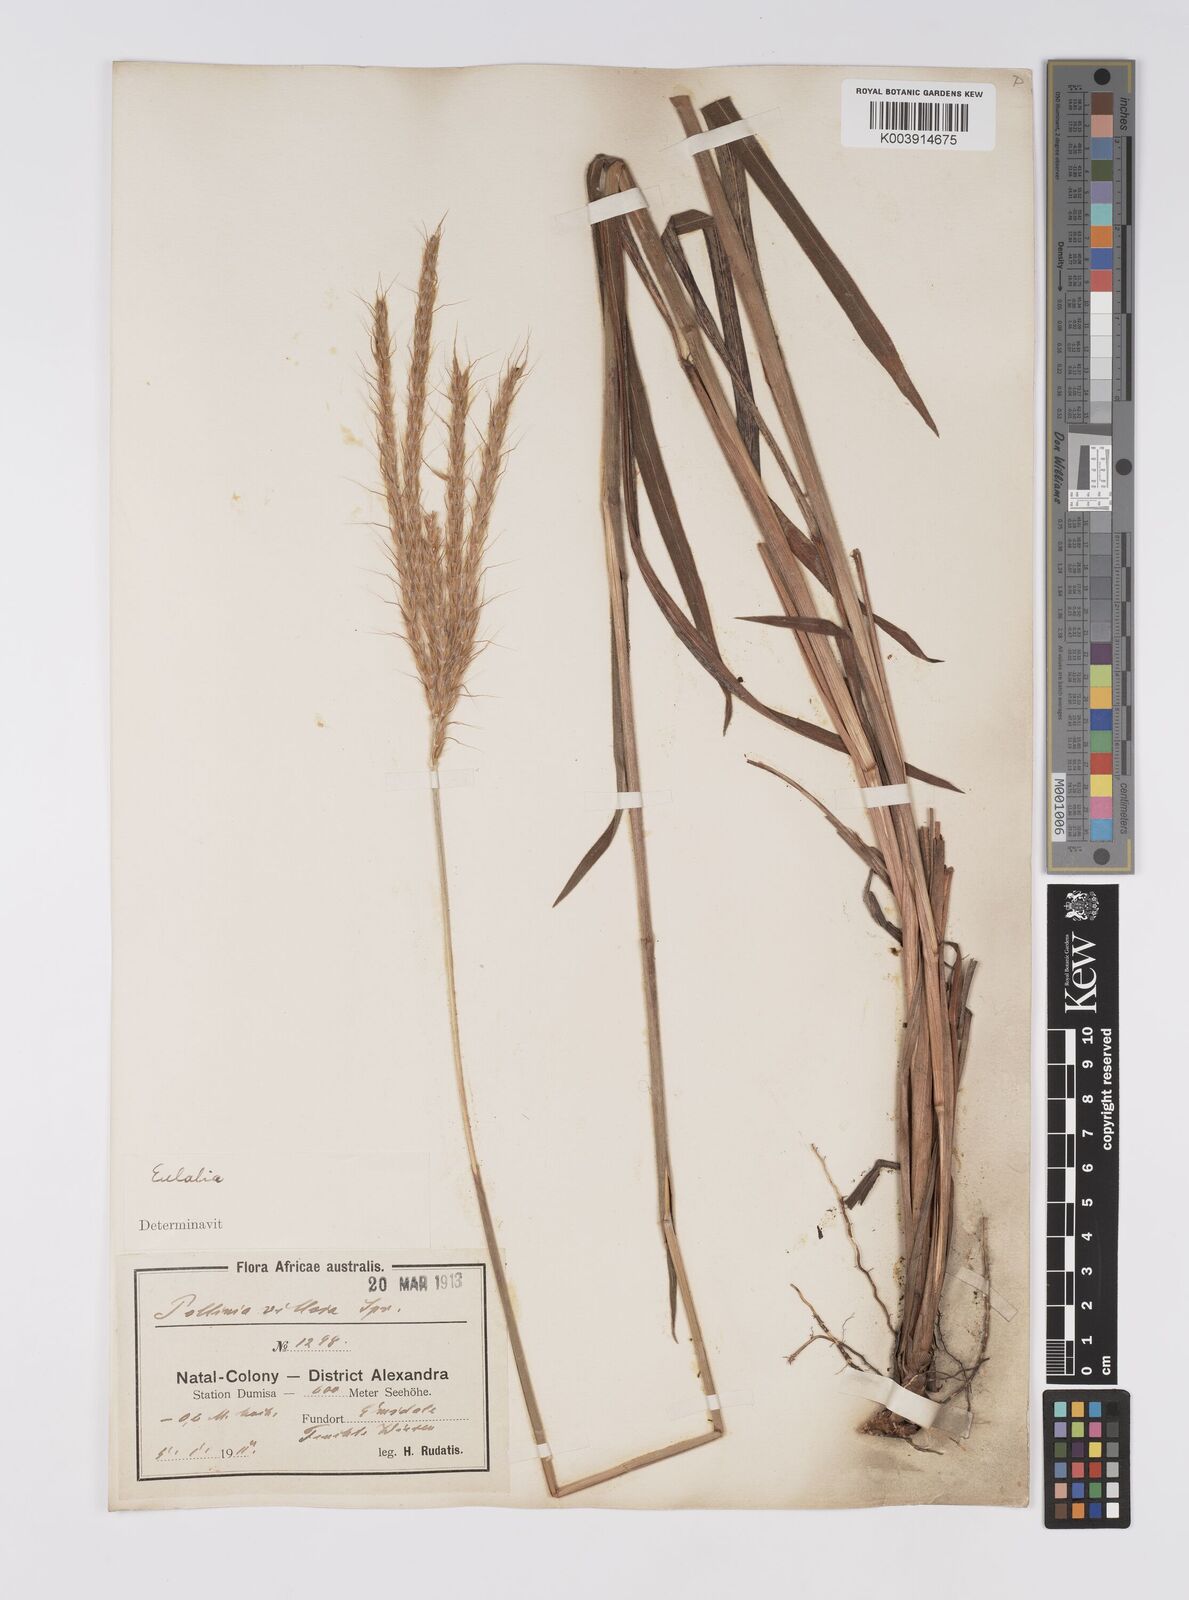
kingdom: Plantae
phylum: Tracheophyta
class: Liliopsida
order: Poales
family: Poaceae
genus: Eulalia
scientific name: Eulalia villosa
